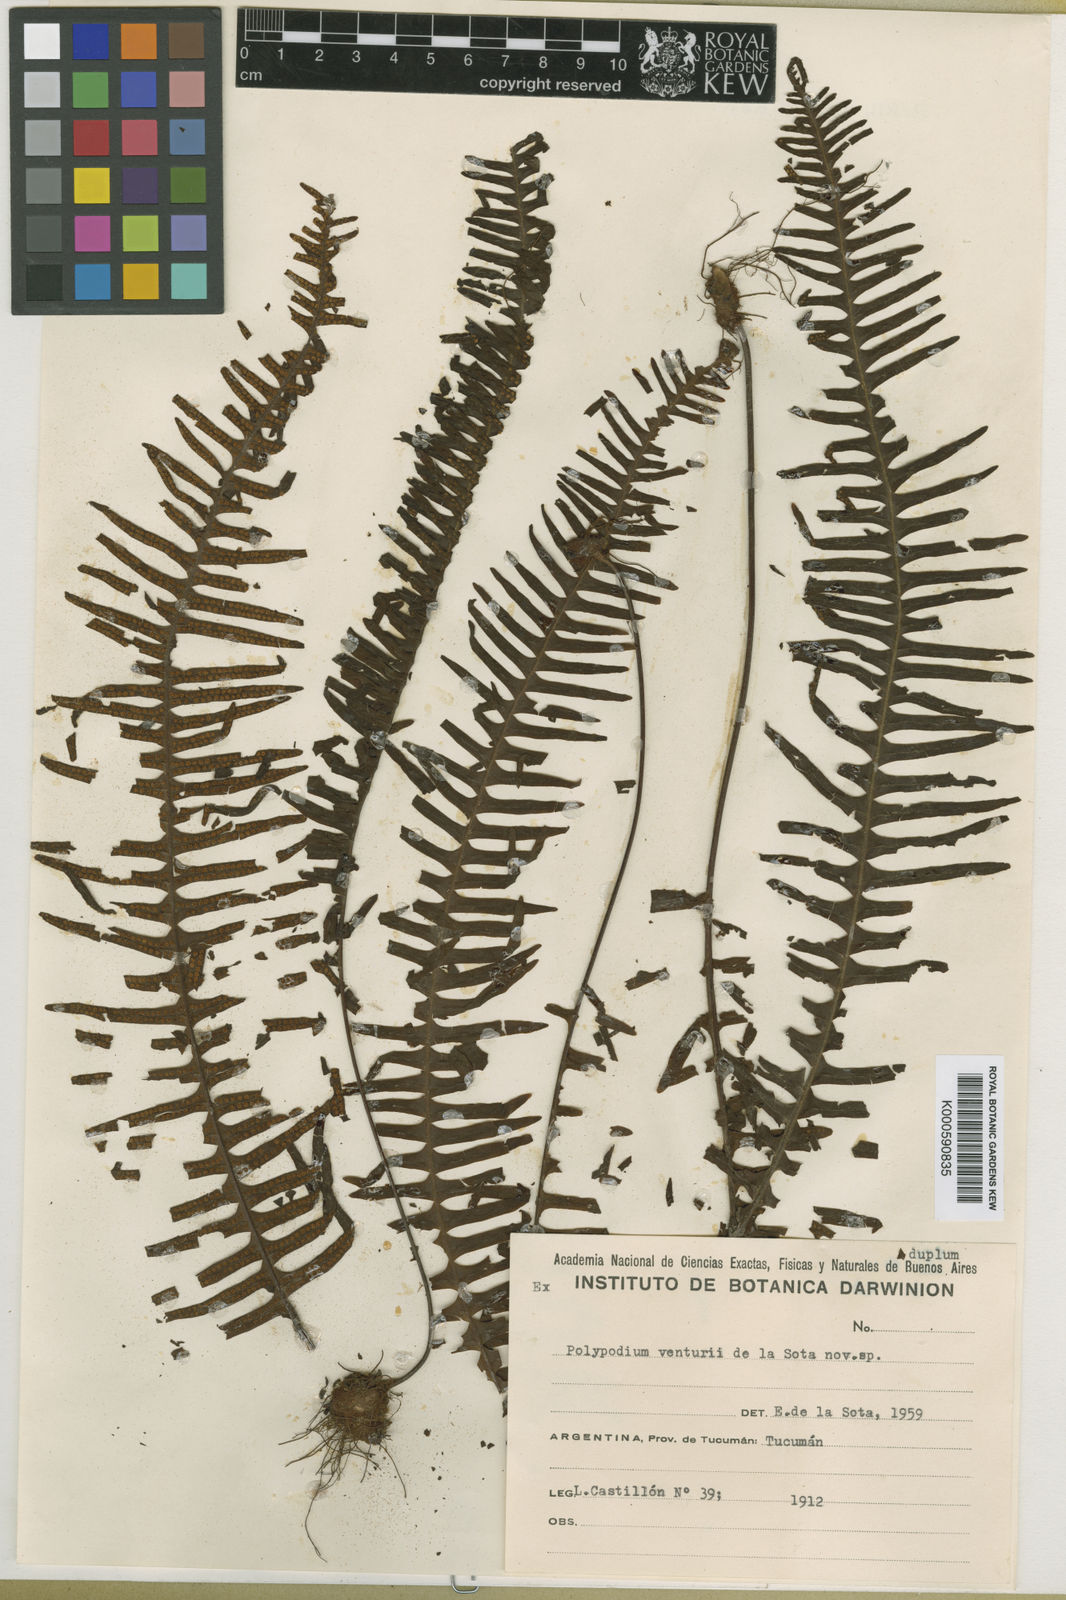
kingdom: Plantae
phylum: Tracheophyta
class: Polypodiopsida
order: Polypodiales
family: Polypodiaceae
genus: Pecluma
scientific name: Pecluma venturii
